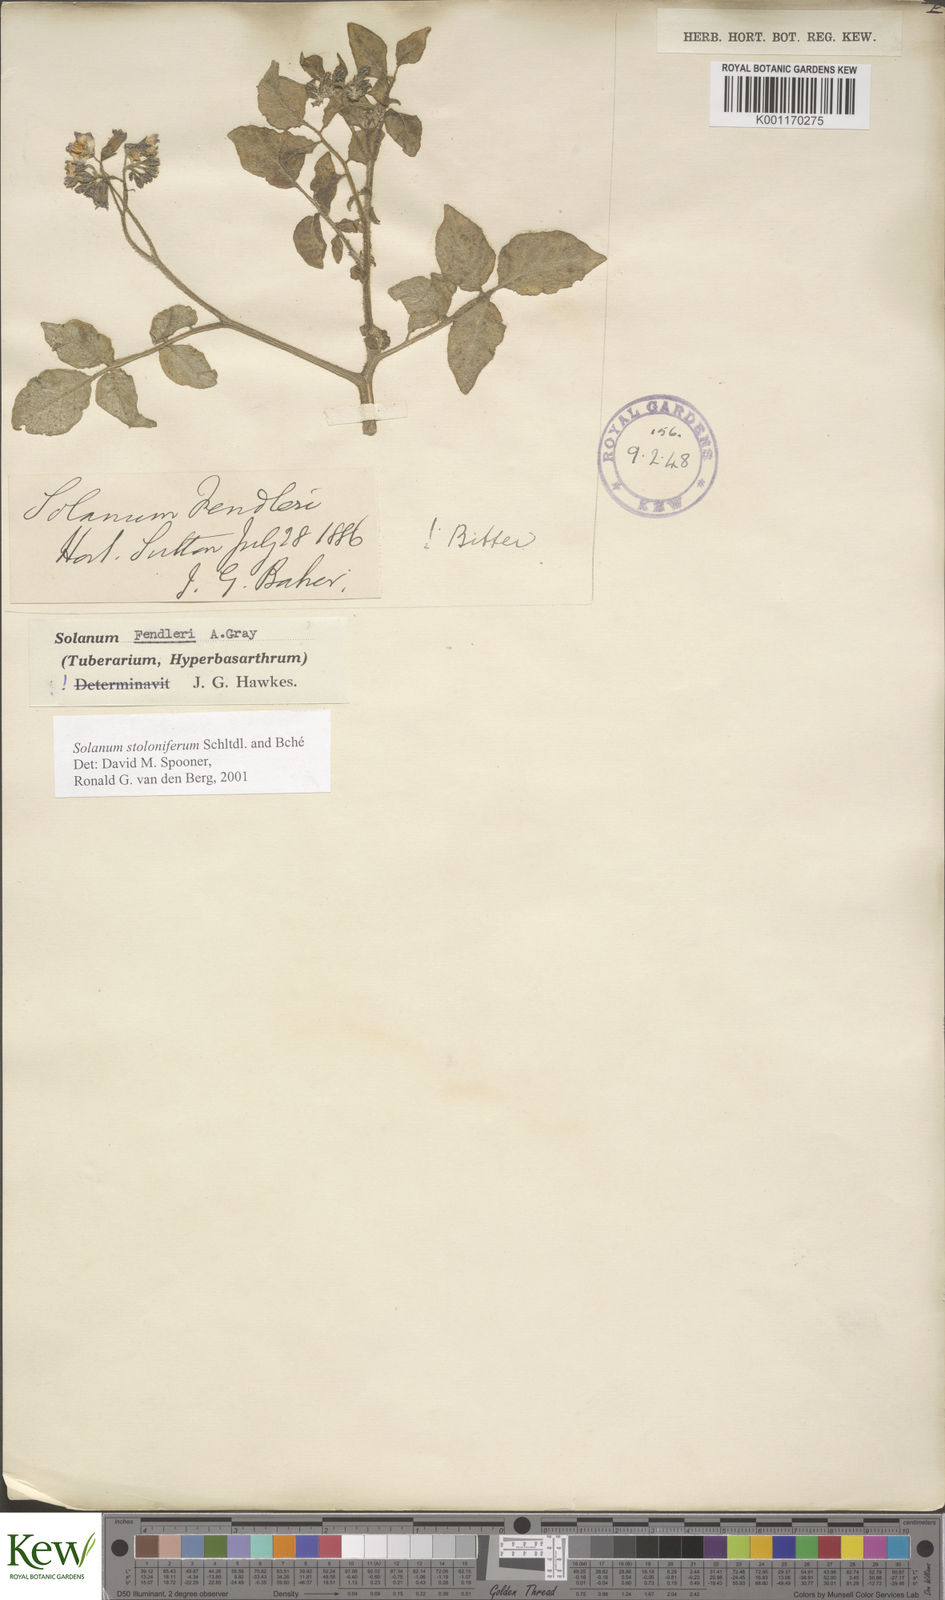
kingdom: Plantae
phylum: Tracheophyta
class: Magnoliopsida
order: Solanales
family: Solanaceae
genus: Solanum
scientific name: Solanum stoloniferum
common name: Fendler's nighshade
